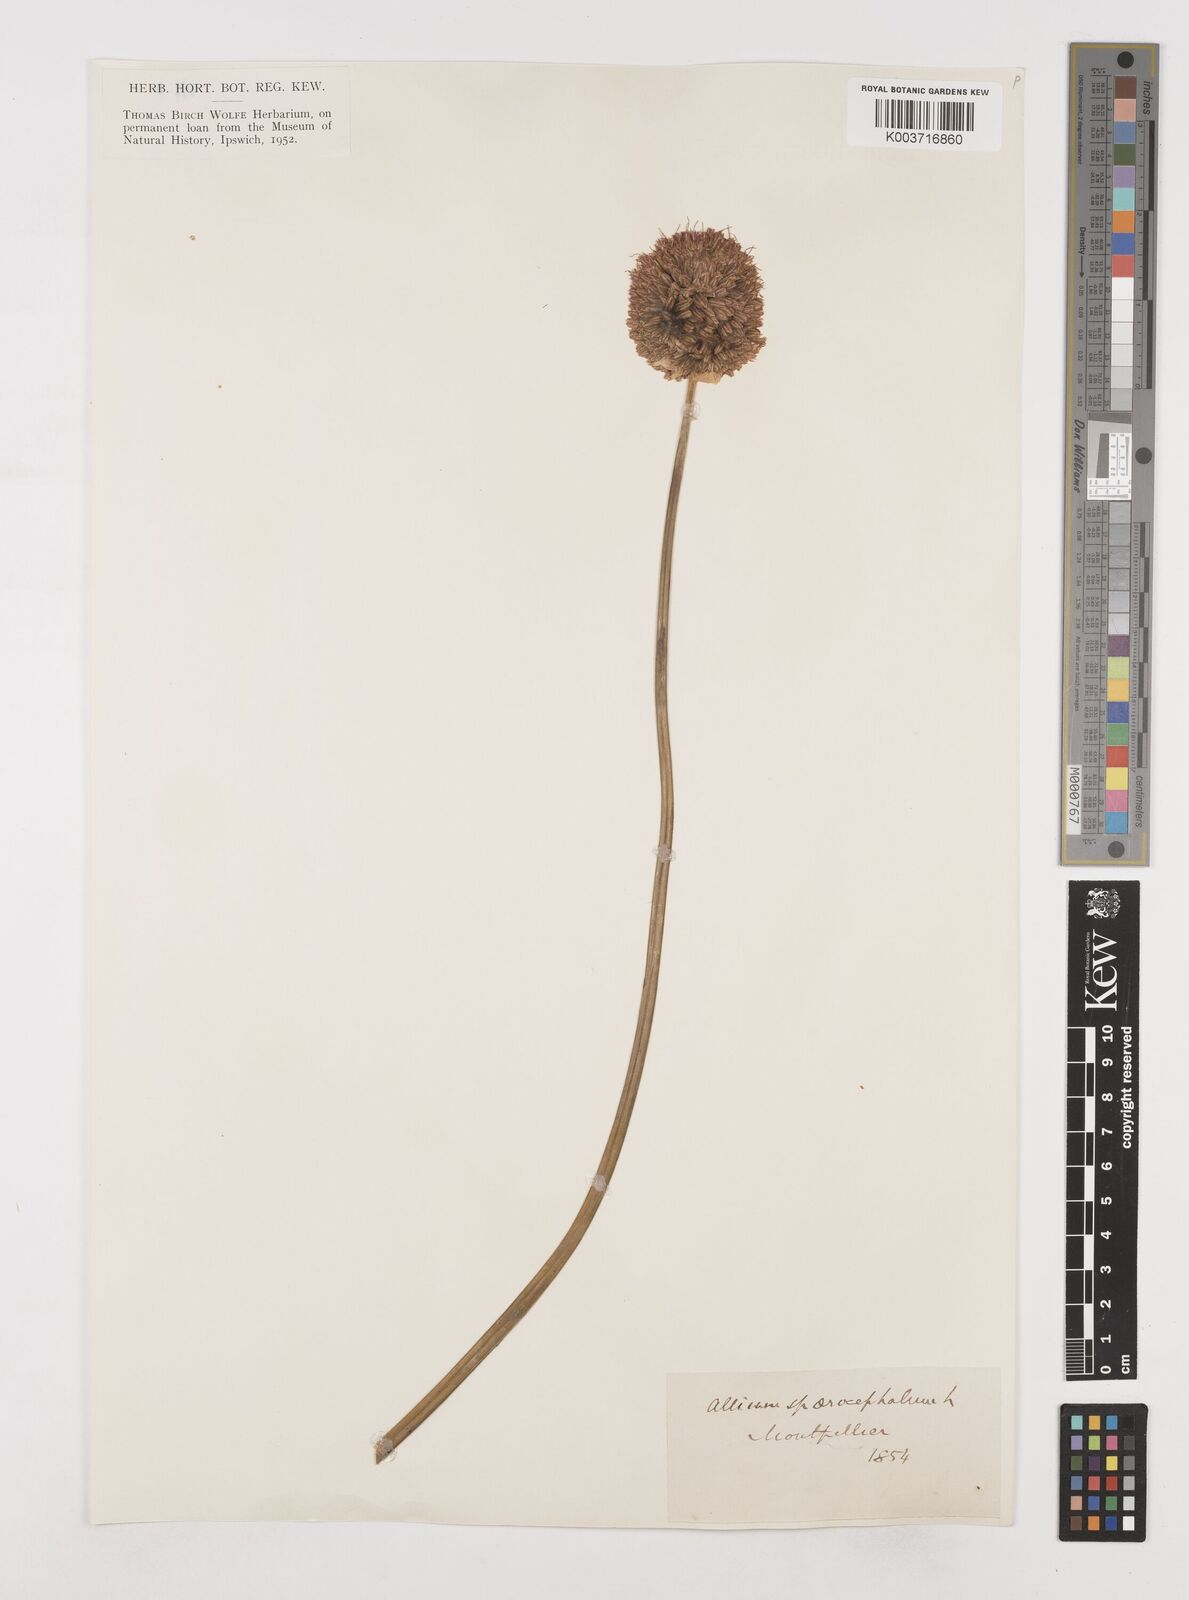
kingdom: Plantae
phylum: Tracheophyta
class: Liliopsida
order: Asparagales
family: Amaryllidaceae
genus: Allium
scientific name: Allium sphaerocephalon
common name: Round-headed leek
